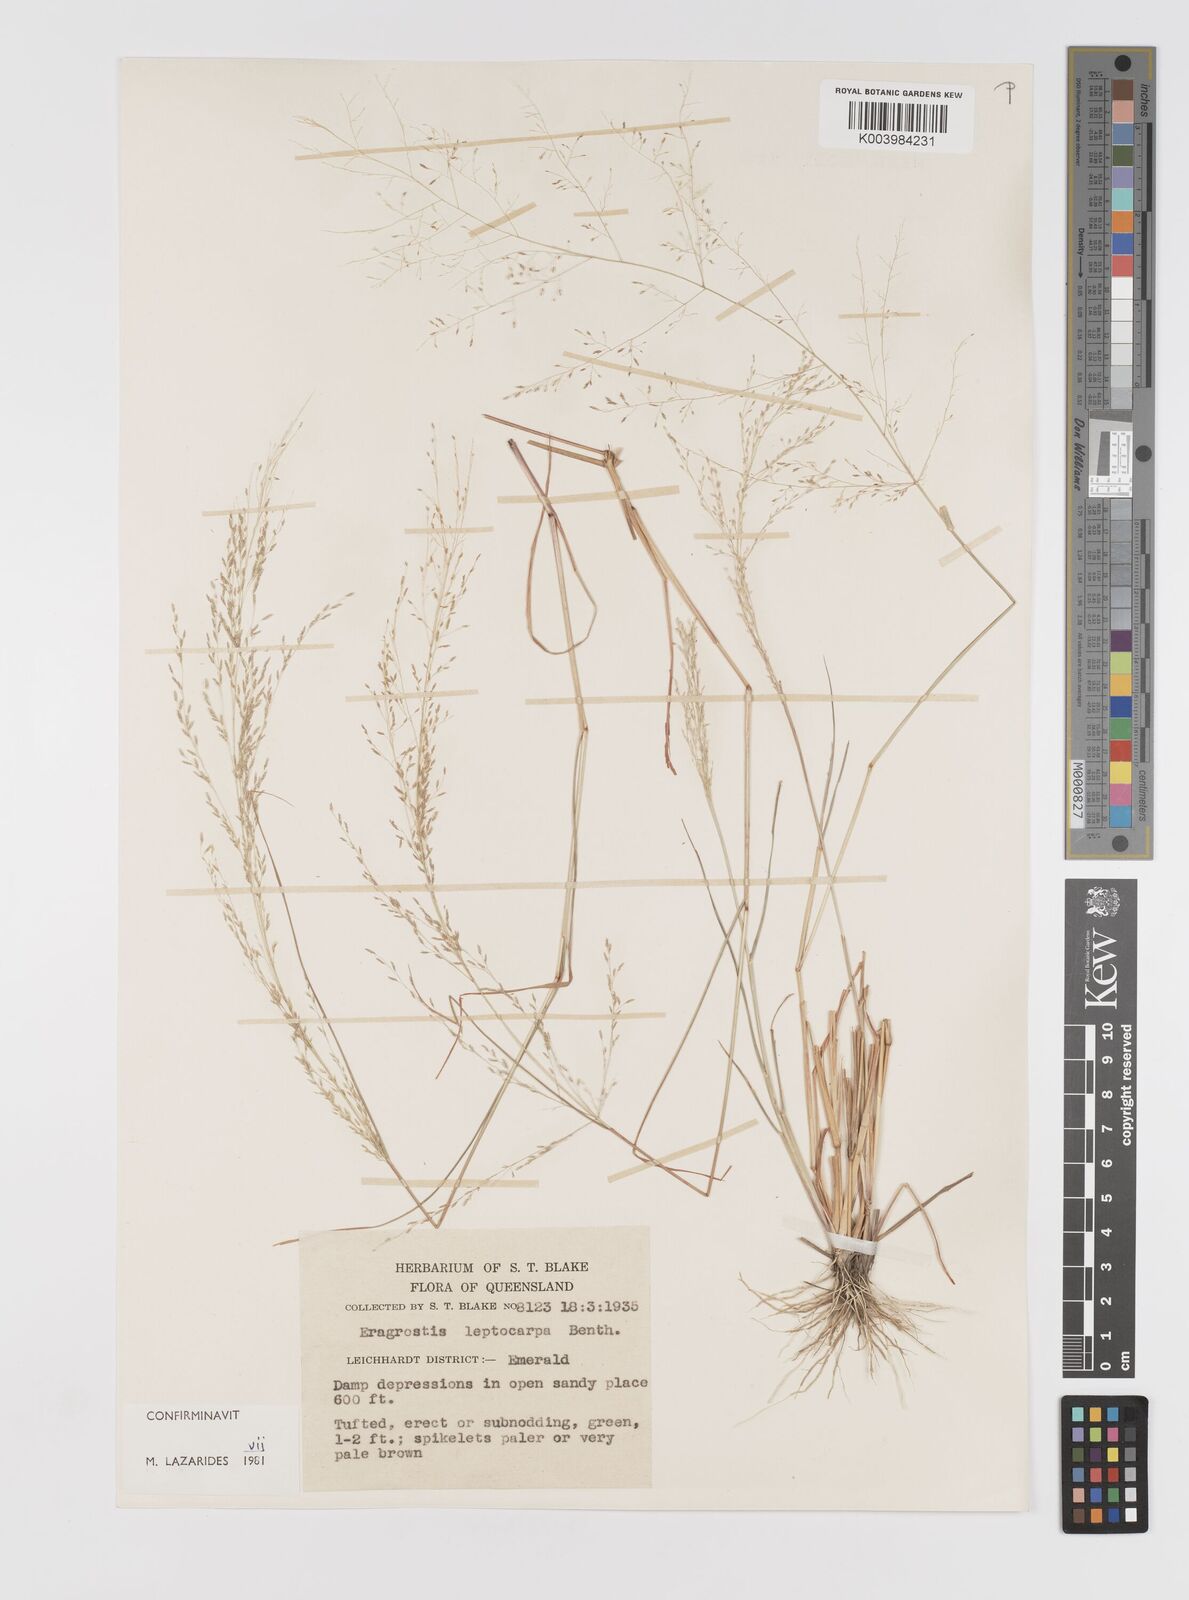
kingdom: Plantae
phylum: Tracheophyta
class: Liliopsida
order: Poales
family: Poaceae
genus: Eragrostis
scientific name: Eragrostis leptocarpa
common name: Drooping love grass
